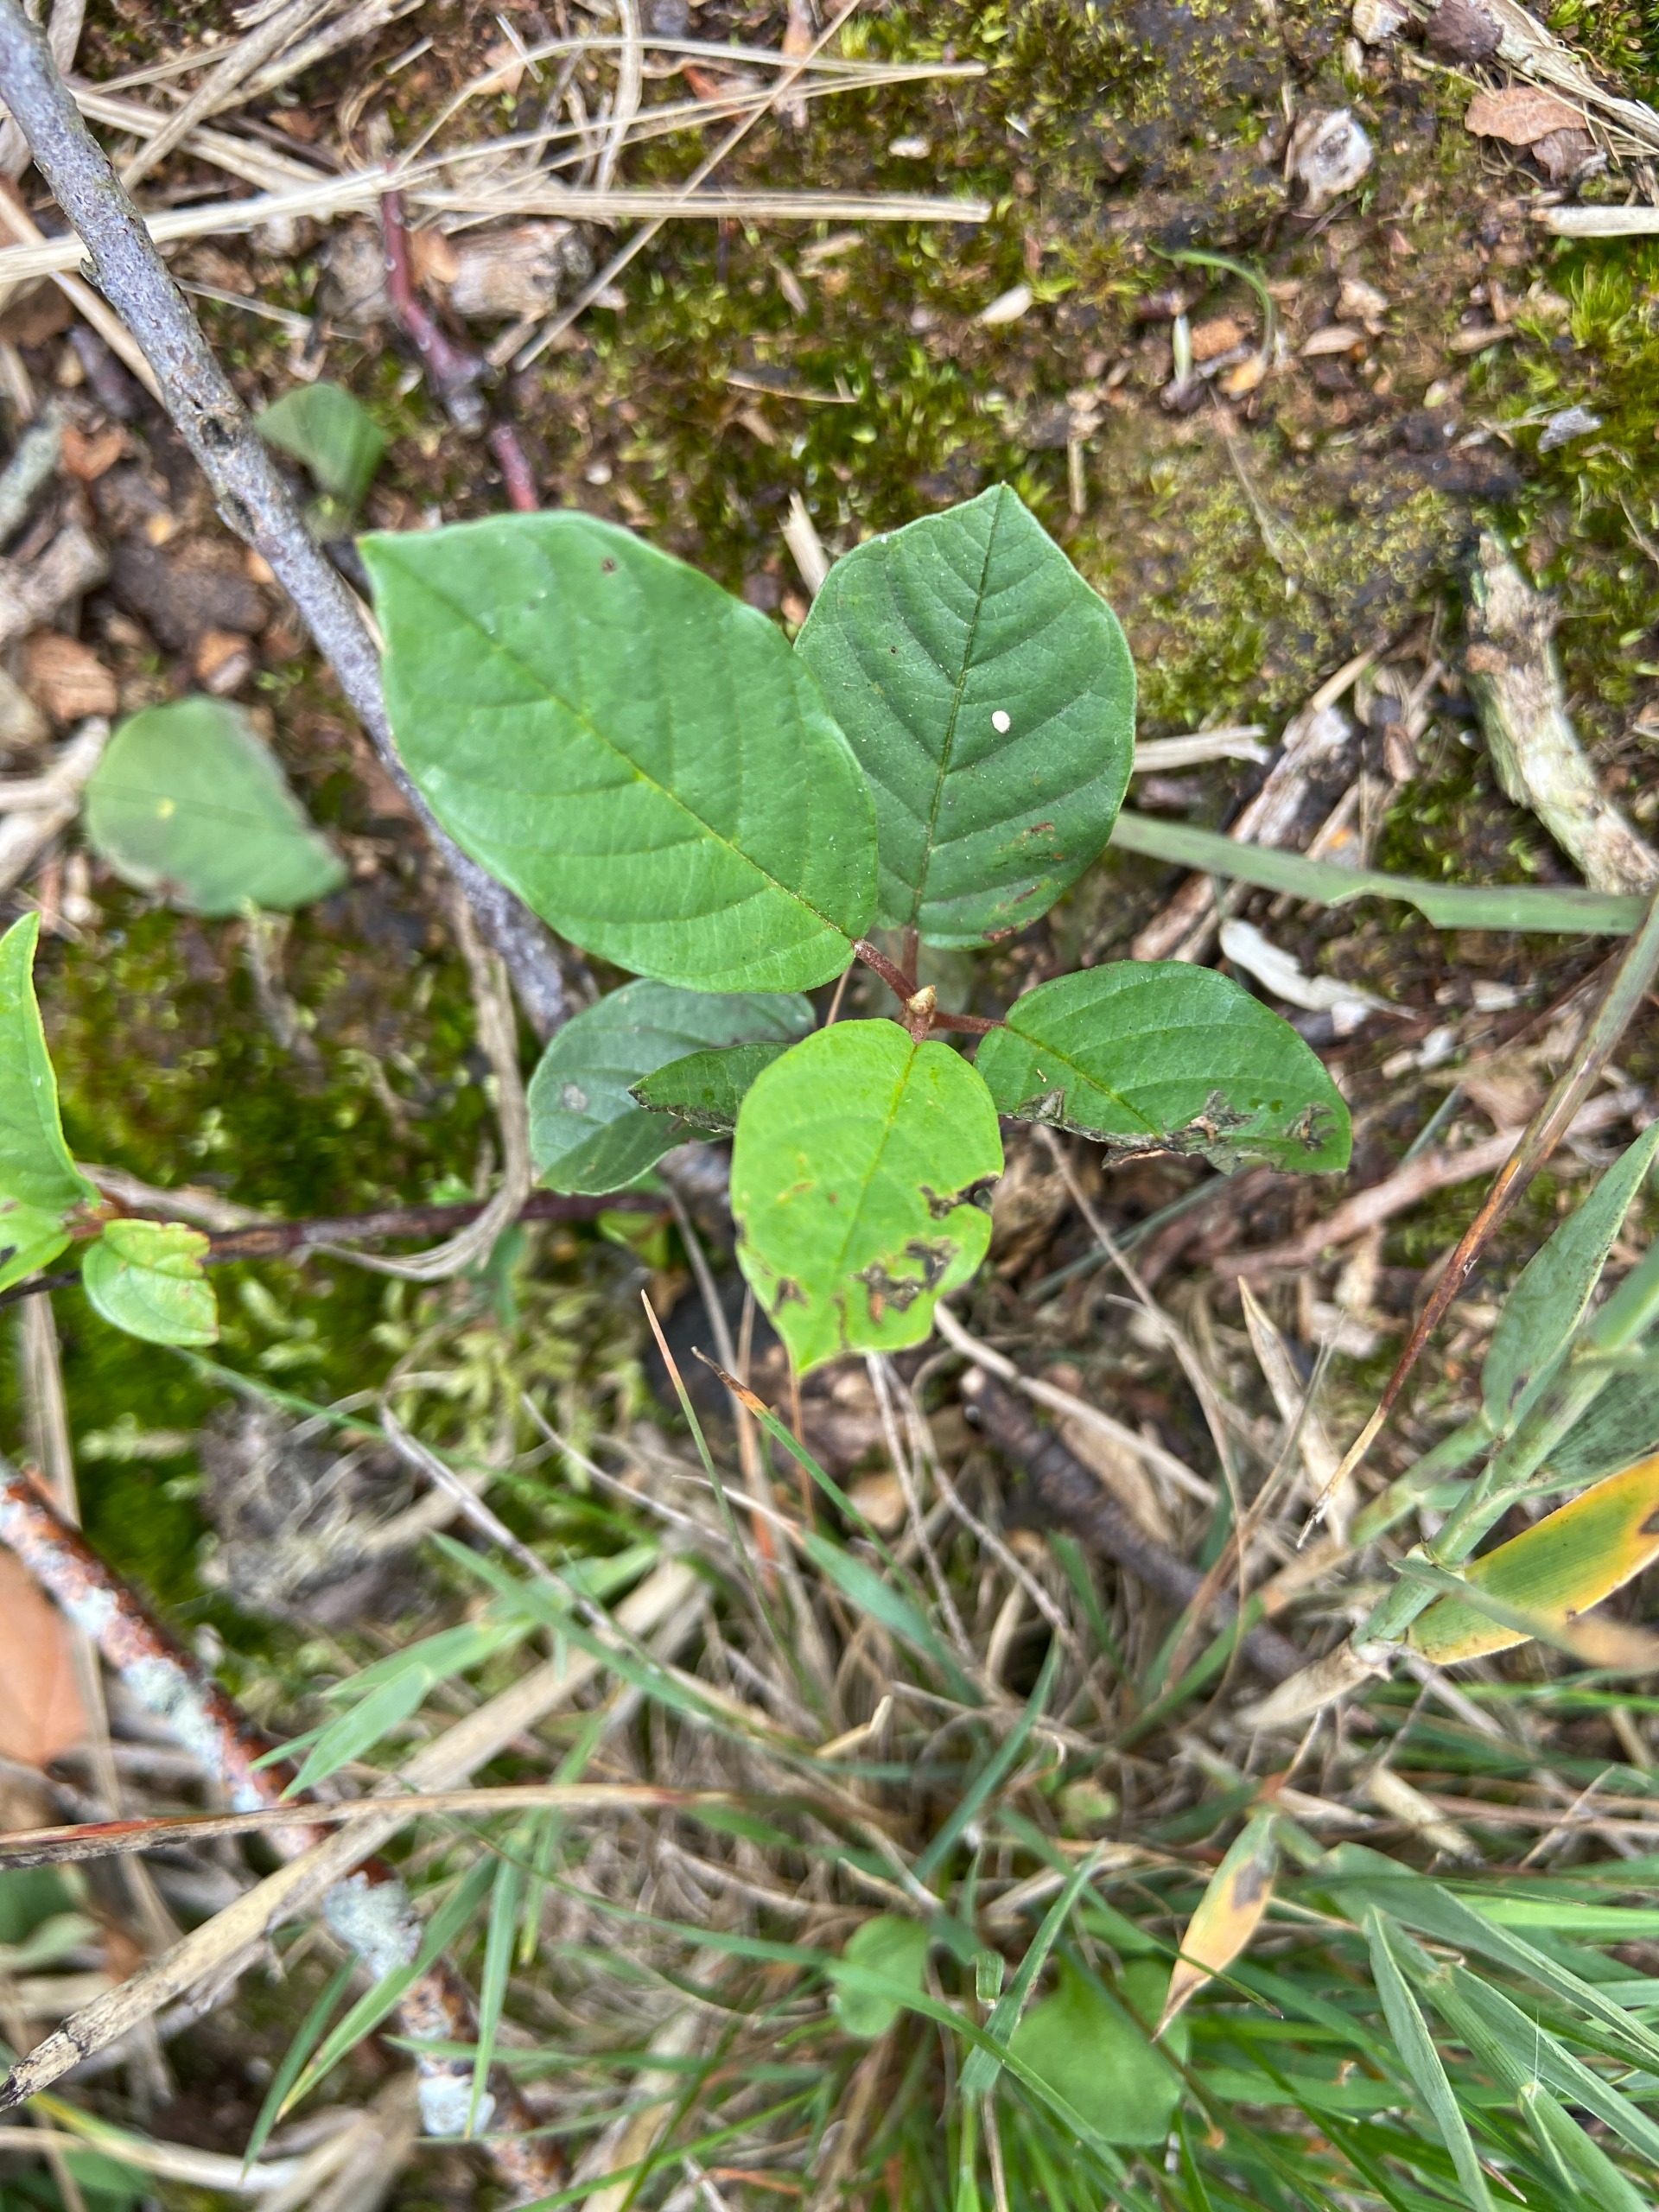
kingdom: Plantae
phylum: Tracheophyta
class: Magnoliopsida
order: Rosales
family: Rhamnaceae
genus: Frangula
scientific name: Frangula alnus
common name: Tørst
